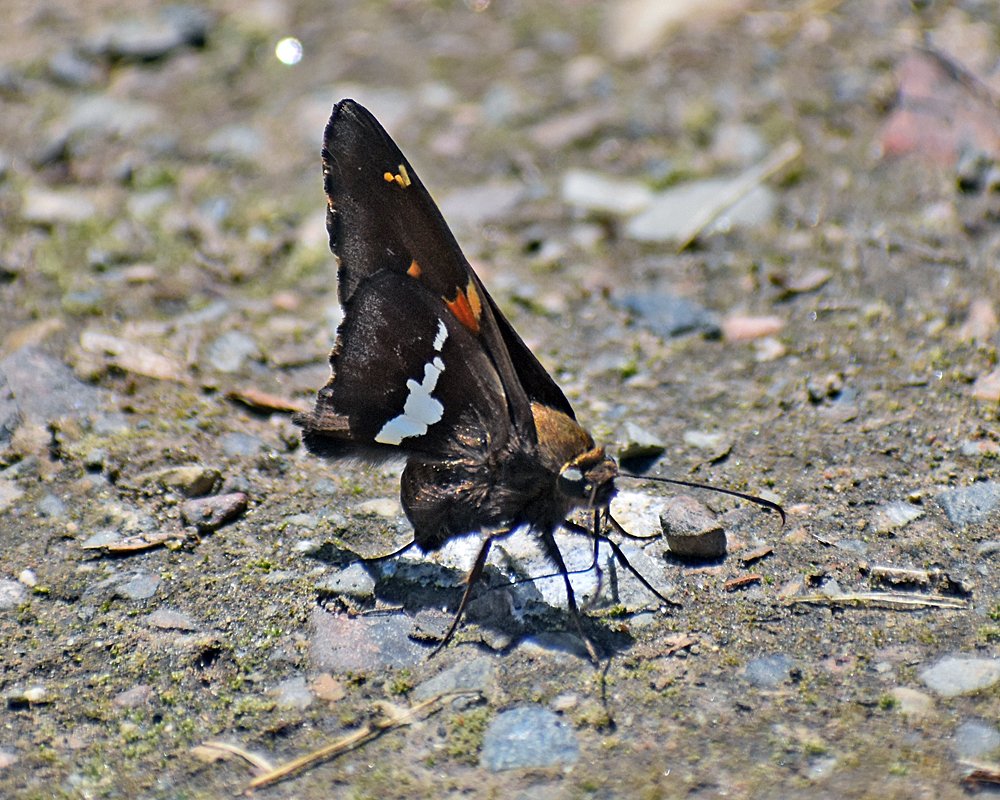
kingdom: Animalia
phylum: Arthropoda
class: Insecta
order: Lepidoptera
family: Hesperiidae
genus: Epargyreus
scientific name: Epargyreus clarus
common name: Silver-spotted Skipper
